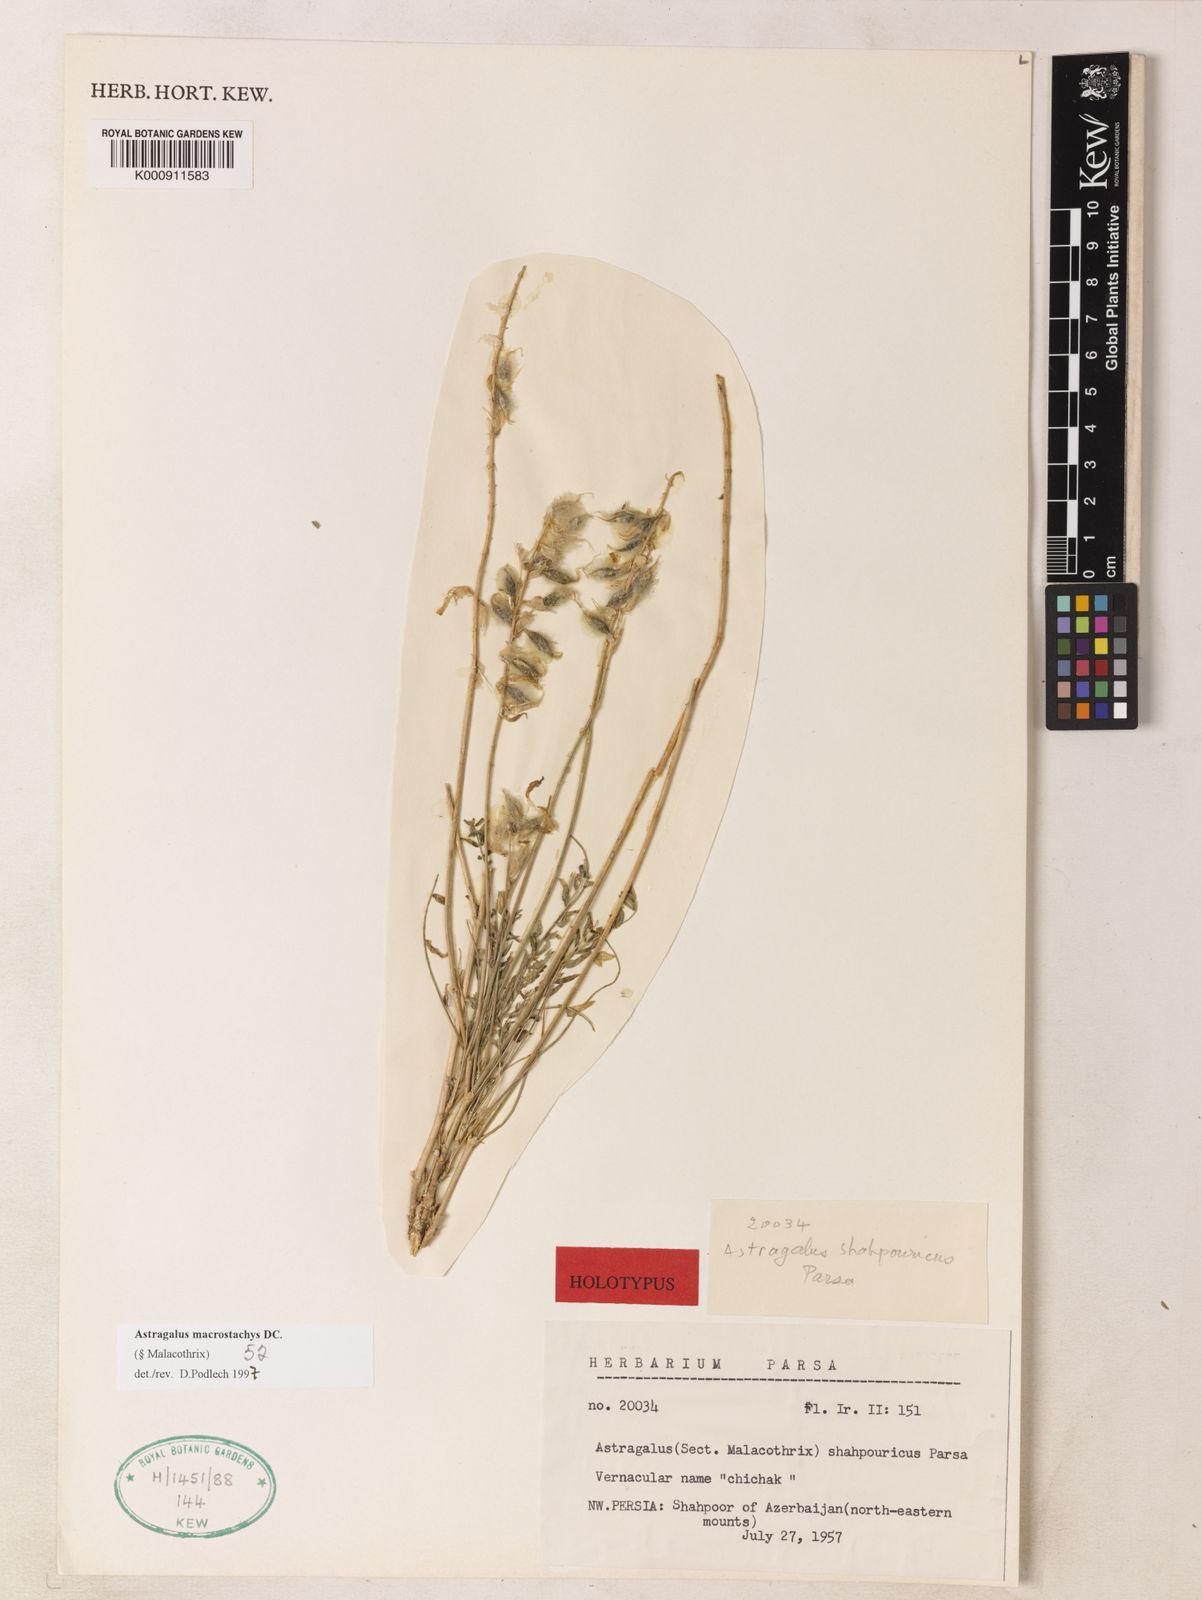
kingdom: Plantae
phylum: Tracheophyta
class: Magnoliopsida
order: Fabales
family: Fabaceae
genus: Astragalus
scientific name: Astragalus macrostachys
